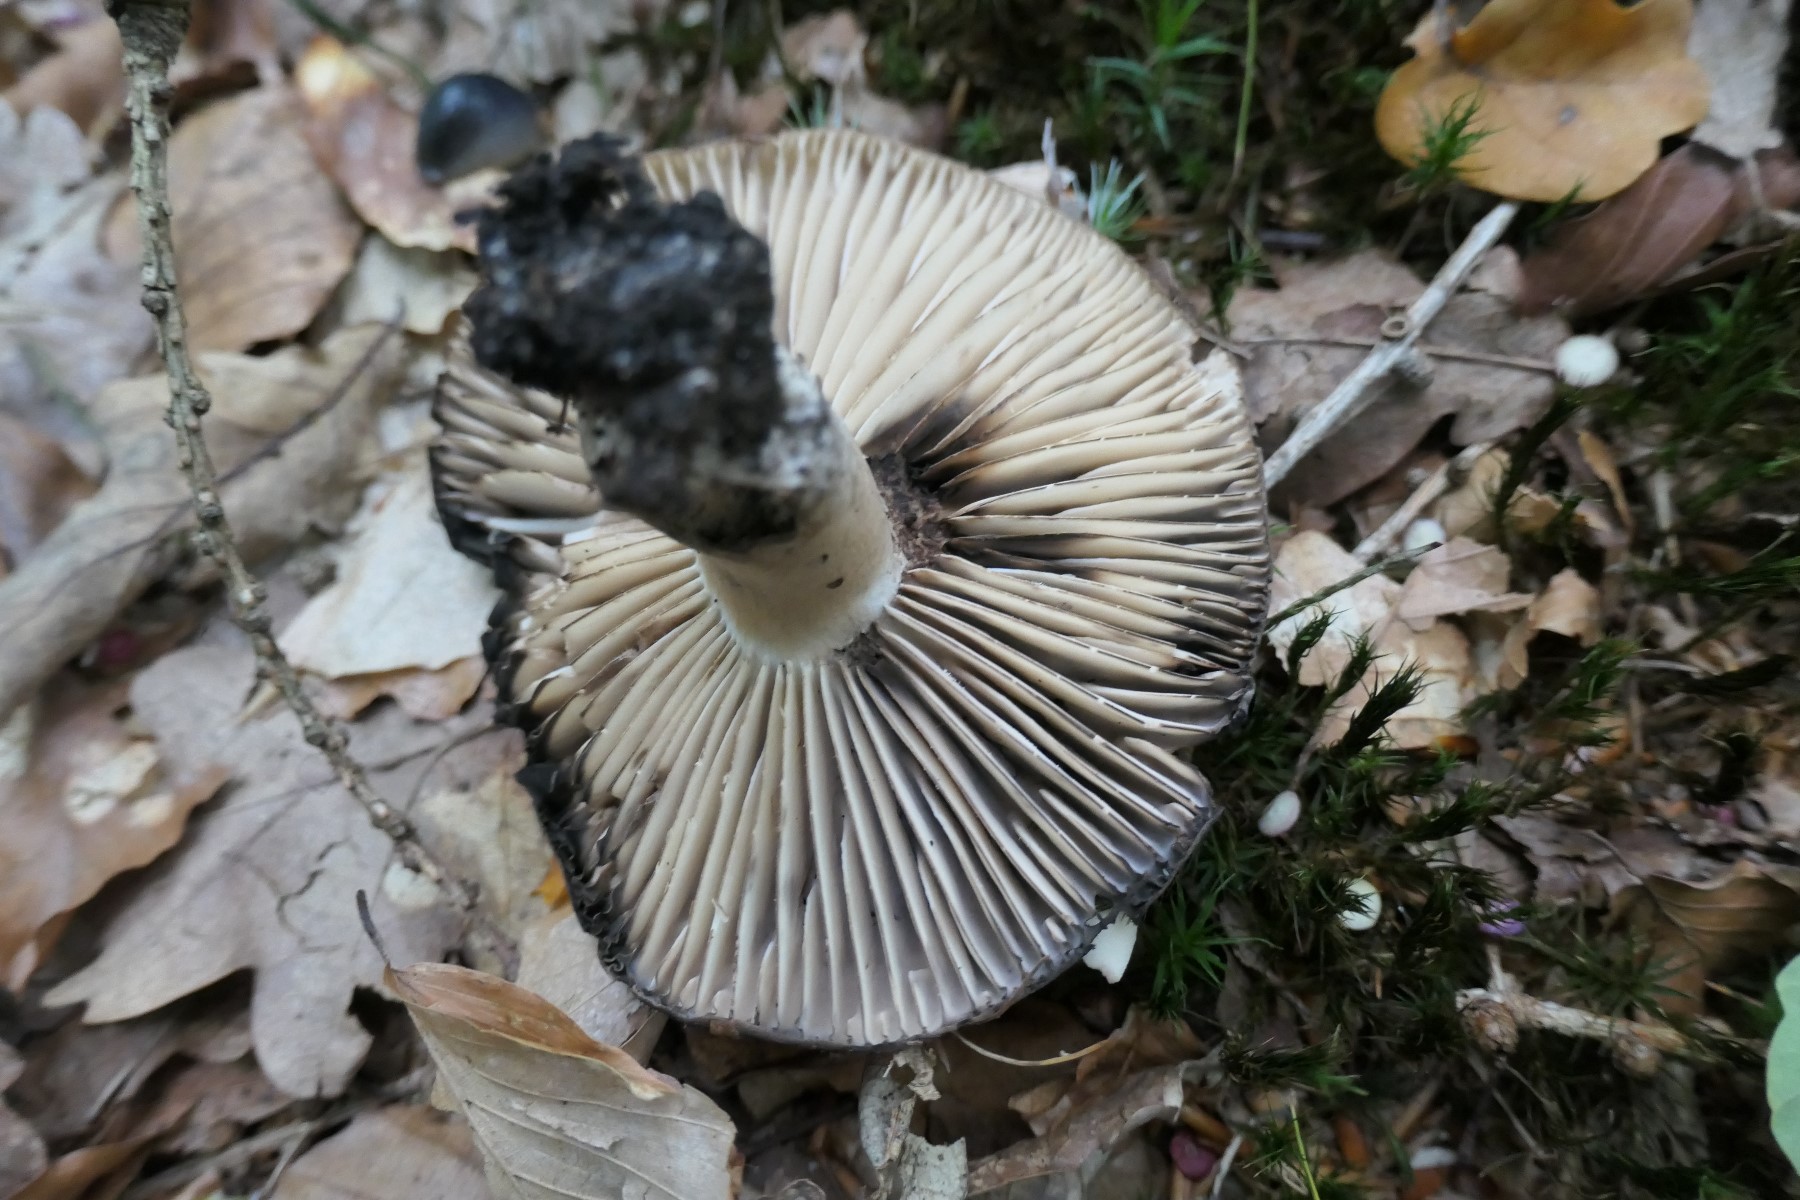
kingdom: Fungi
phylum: Basidiomycota
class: Agaricomycetes
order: Russulales
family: Russulaceae
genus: Russula
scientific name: Russula adusta
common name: sværtende skørhat
